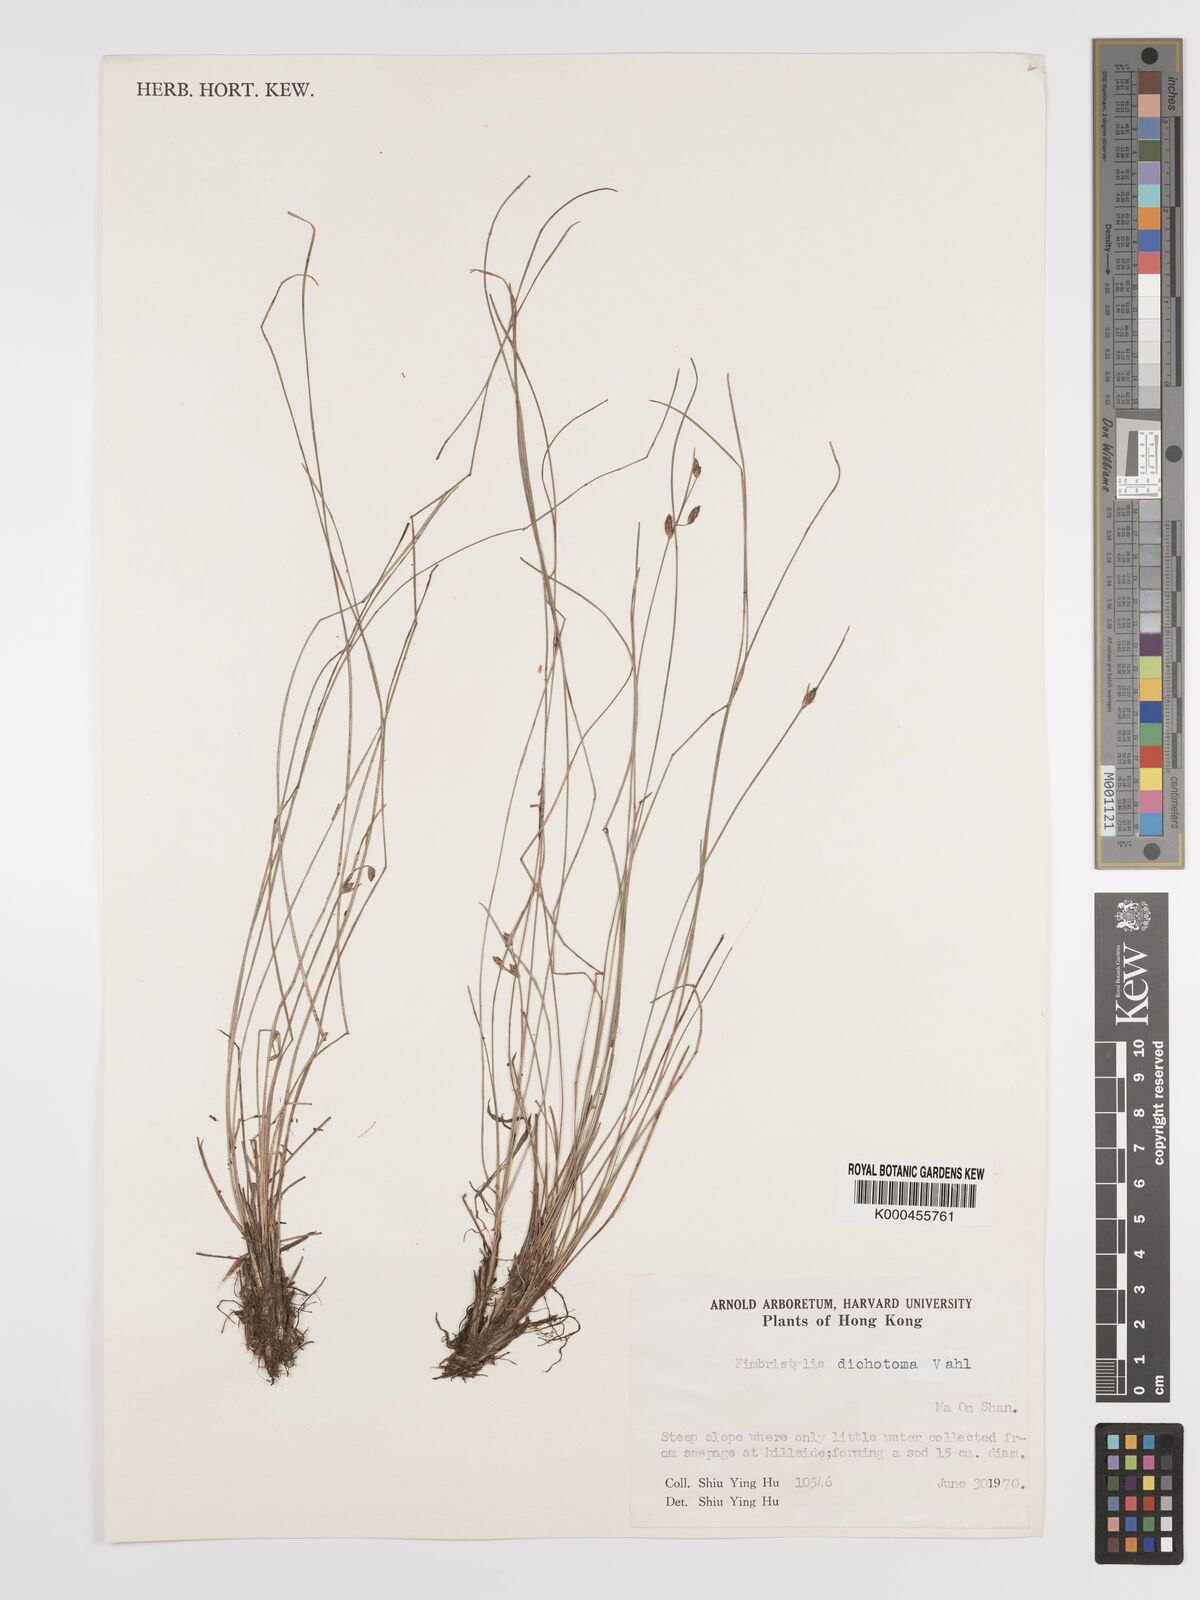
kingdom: Plantae
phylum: Tracheophyta
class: Liliopsida
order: Poales
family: Cyperaceae
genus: Fimbristylis
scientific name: Fimbristylis dichotoma
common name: Forked fimbry
